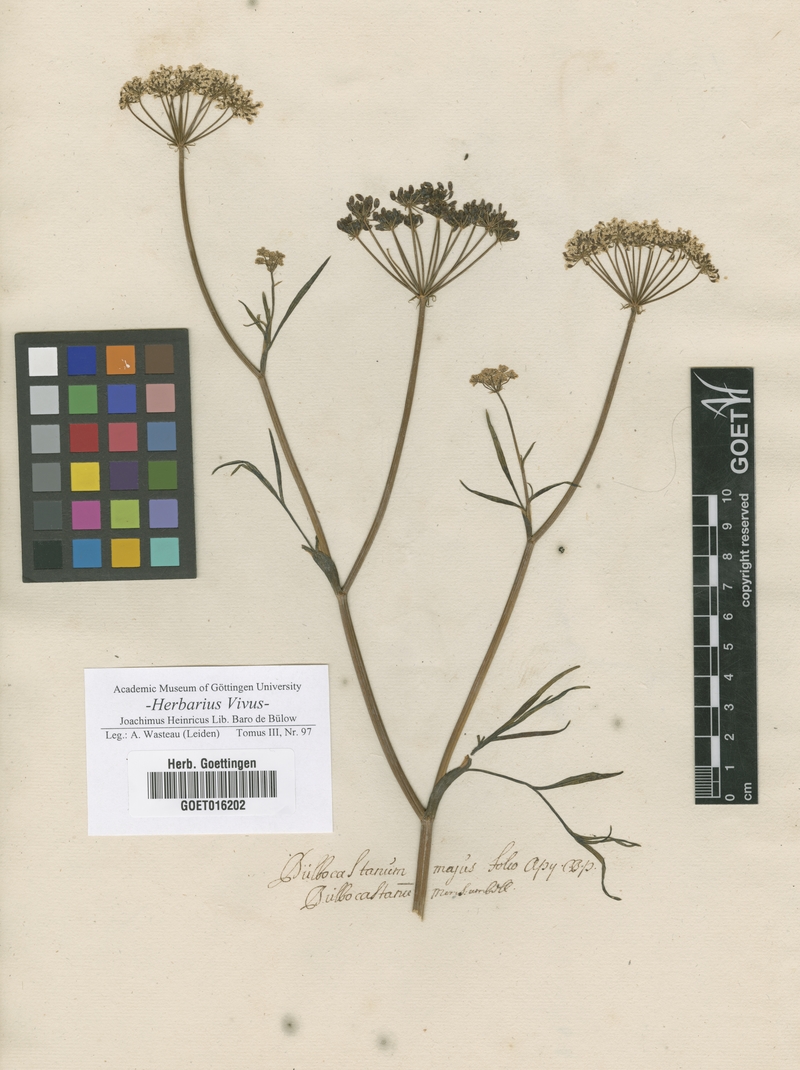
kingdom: Plantae
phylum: Tracheophyta
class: Magnoliopsida
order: Apiales
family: Apiaceae
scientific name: Apiaceae
